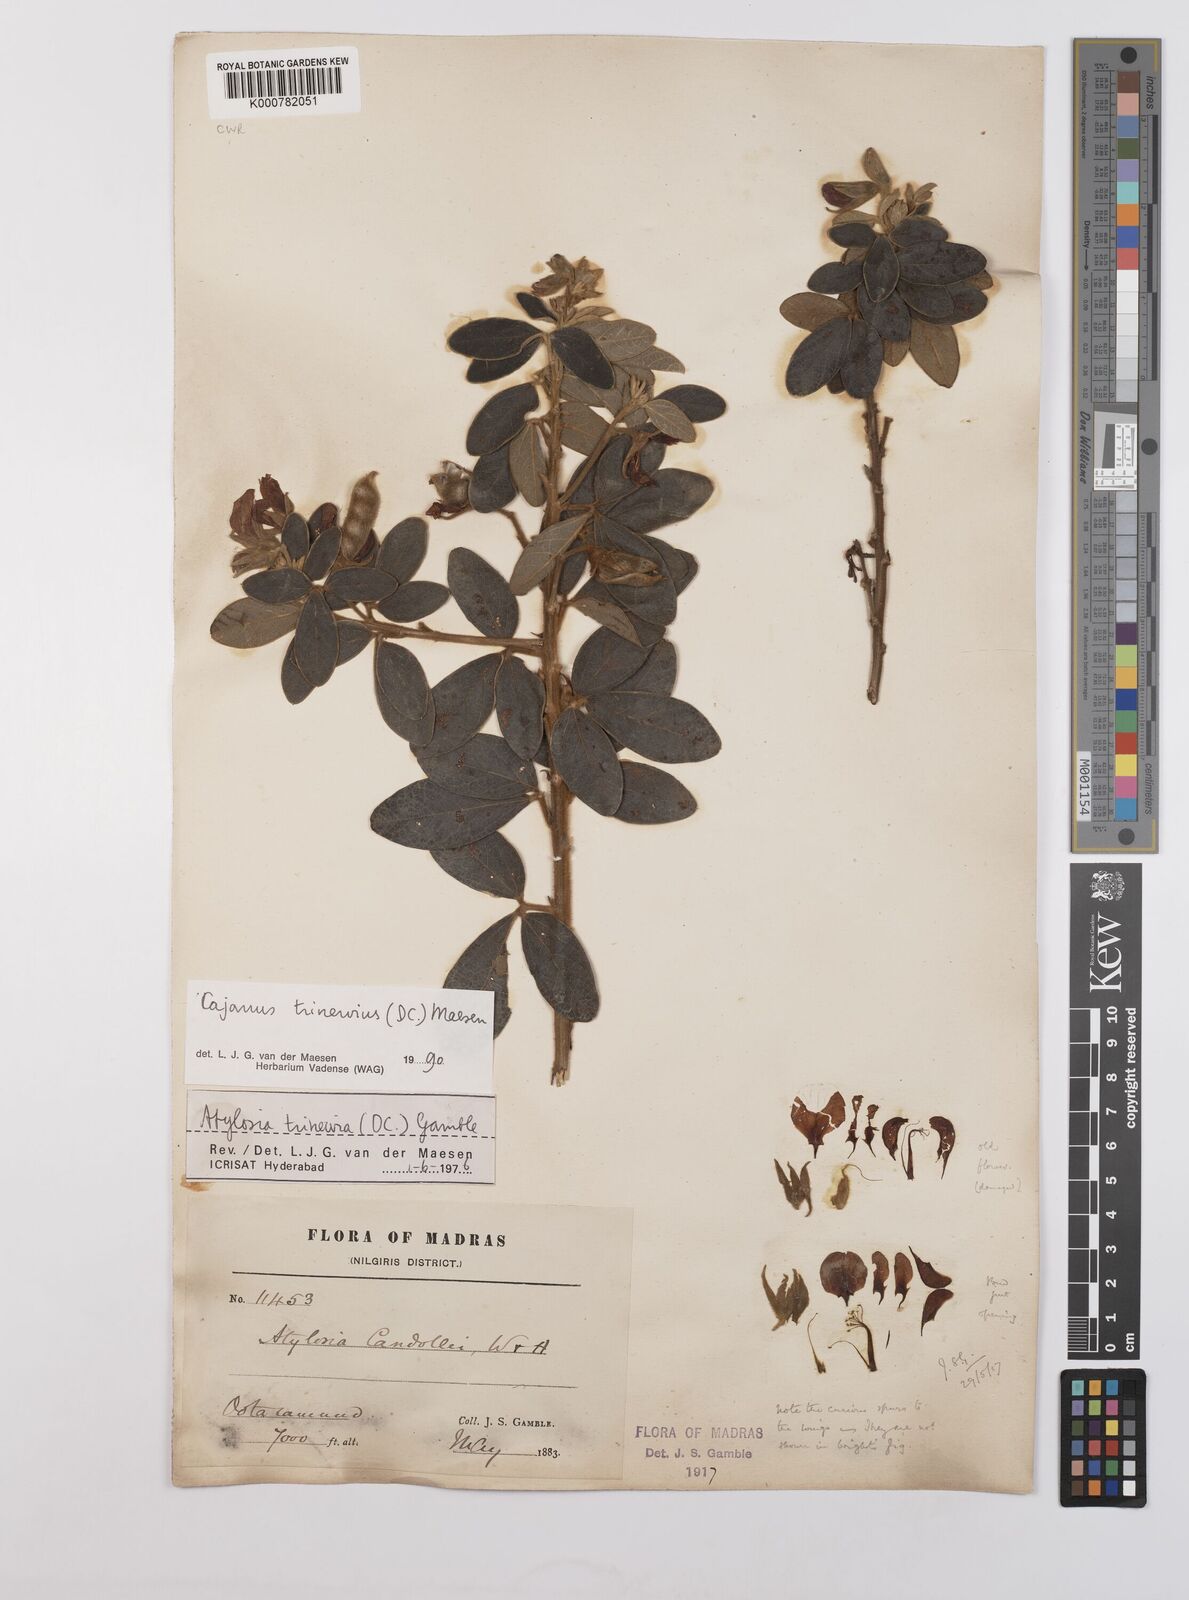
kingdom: Plantae
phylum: Tracheophyta
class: Magnoliopsida
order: Fabales
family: Fabaceae
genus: Cajanus
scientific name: Cajanus trinervius
